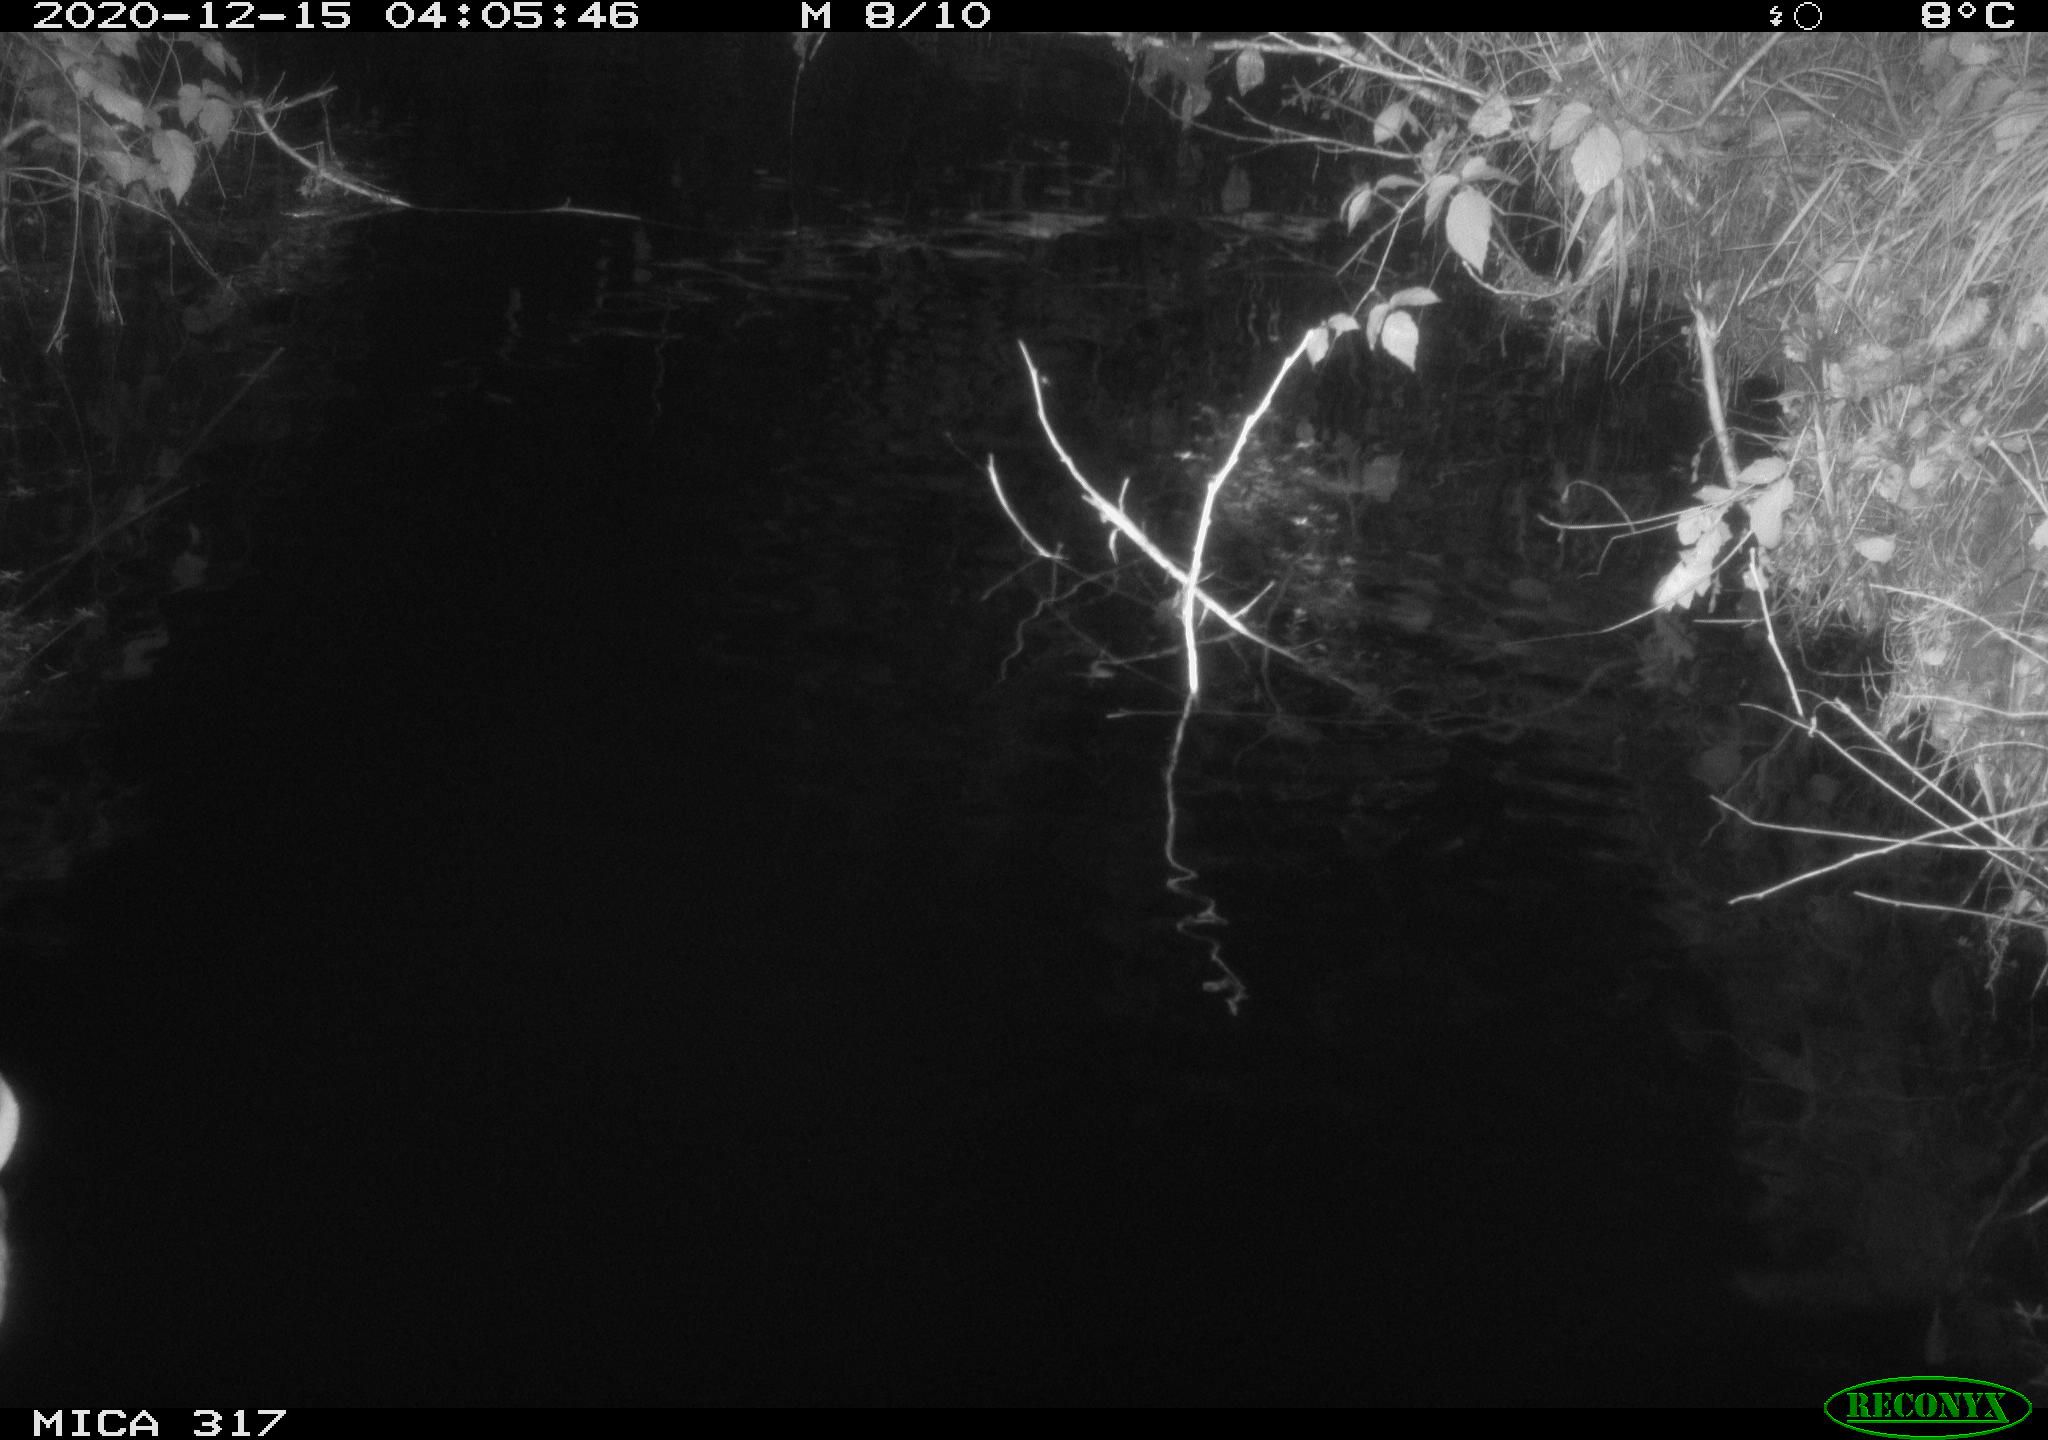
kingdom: Animalia
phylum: Chordata
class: Aves
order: Anseriformes
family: Anatidae
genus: Anas
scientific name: Anas platyrhynchos
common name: Mallard
